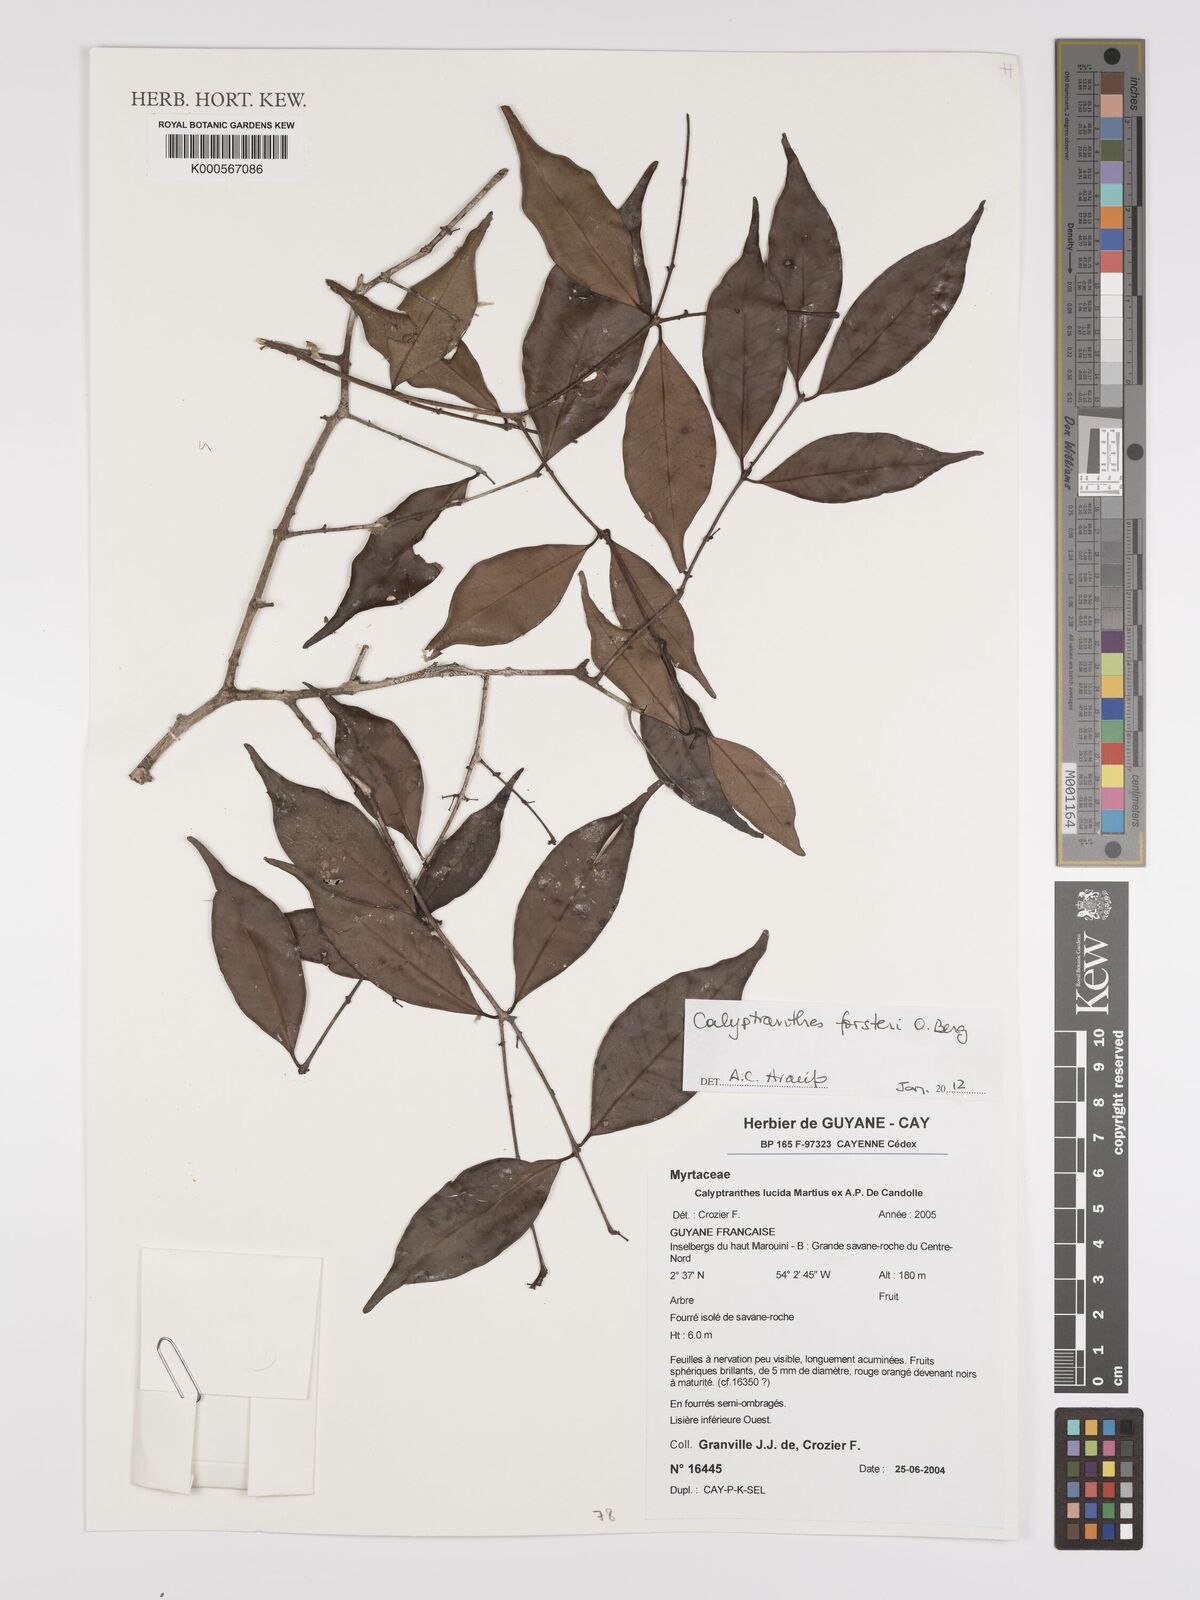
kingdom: Plantae
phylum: Tracheophyta
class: Magnoliopsida
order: Myrtales
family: Myrtaceae
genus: Myrcia
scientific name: Myrcia forsteri
